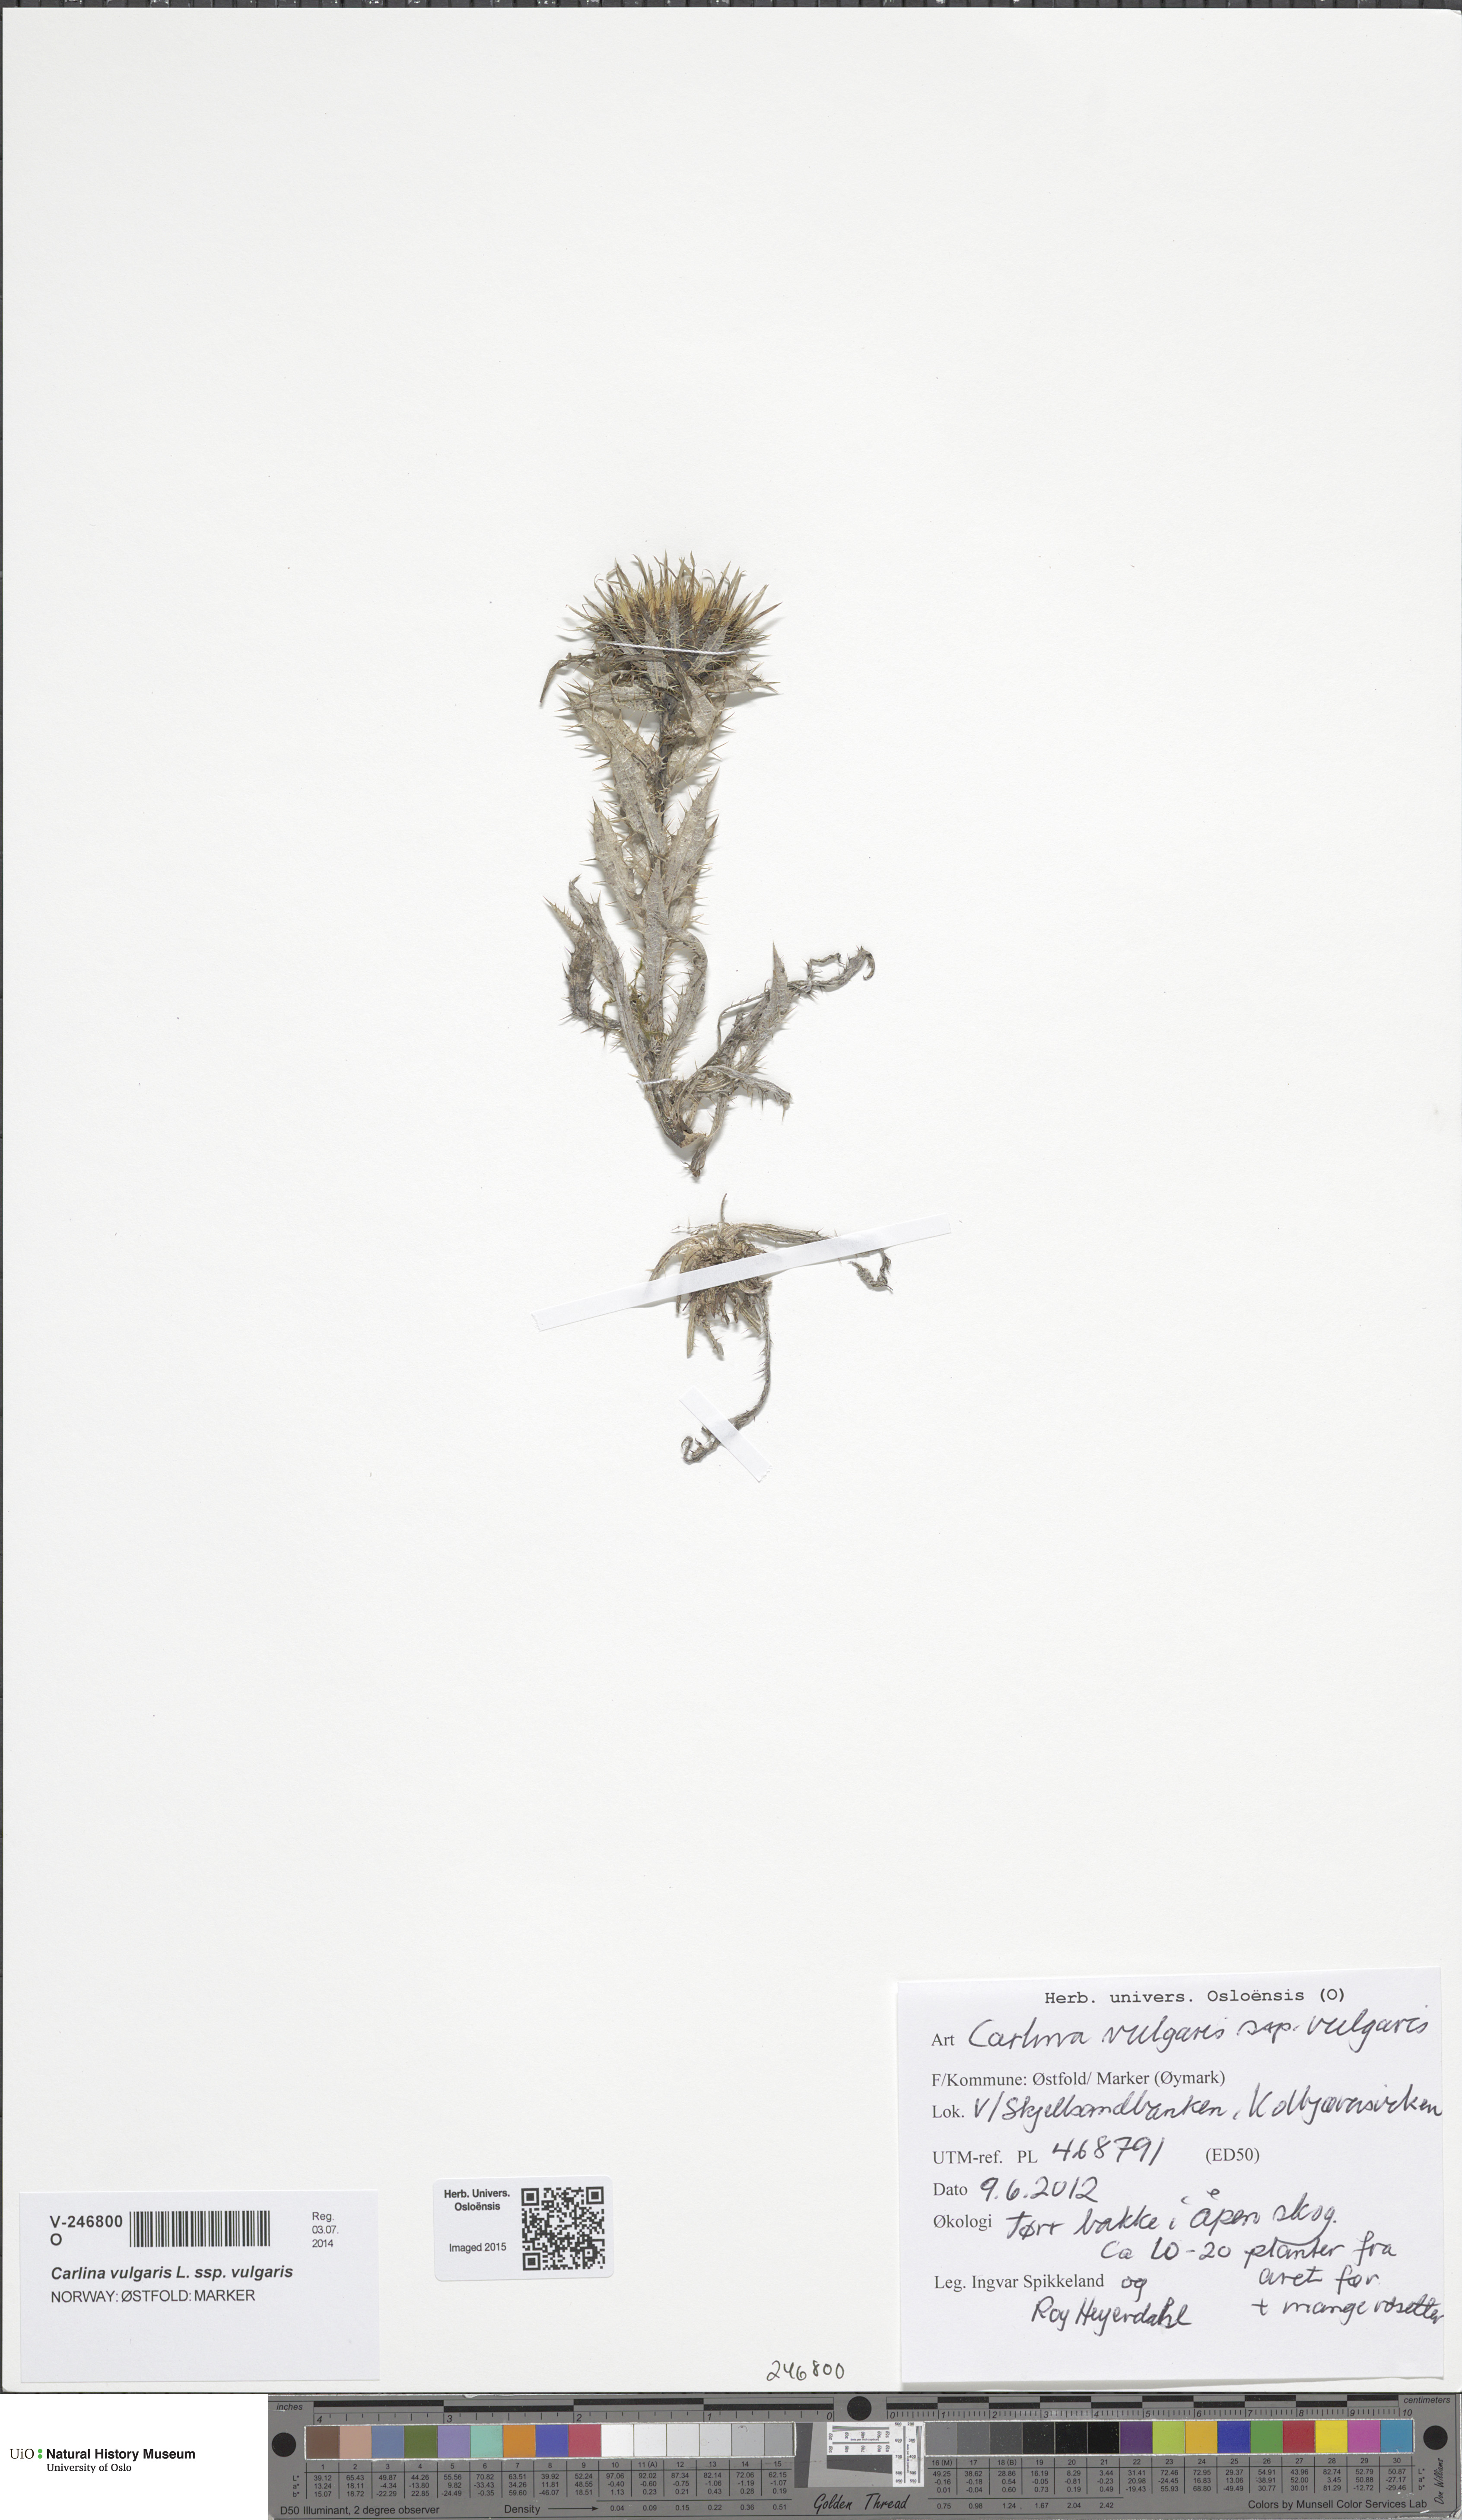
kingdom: Plantae
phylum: Tracheophyta
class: Magnoliopsida
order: Asterales
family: Asteraceae
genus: Carlina
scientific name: Carlina vulgaris
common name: Carline thistle
